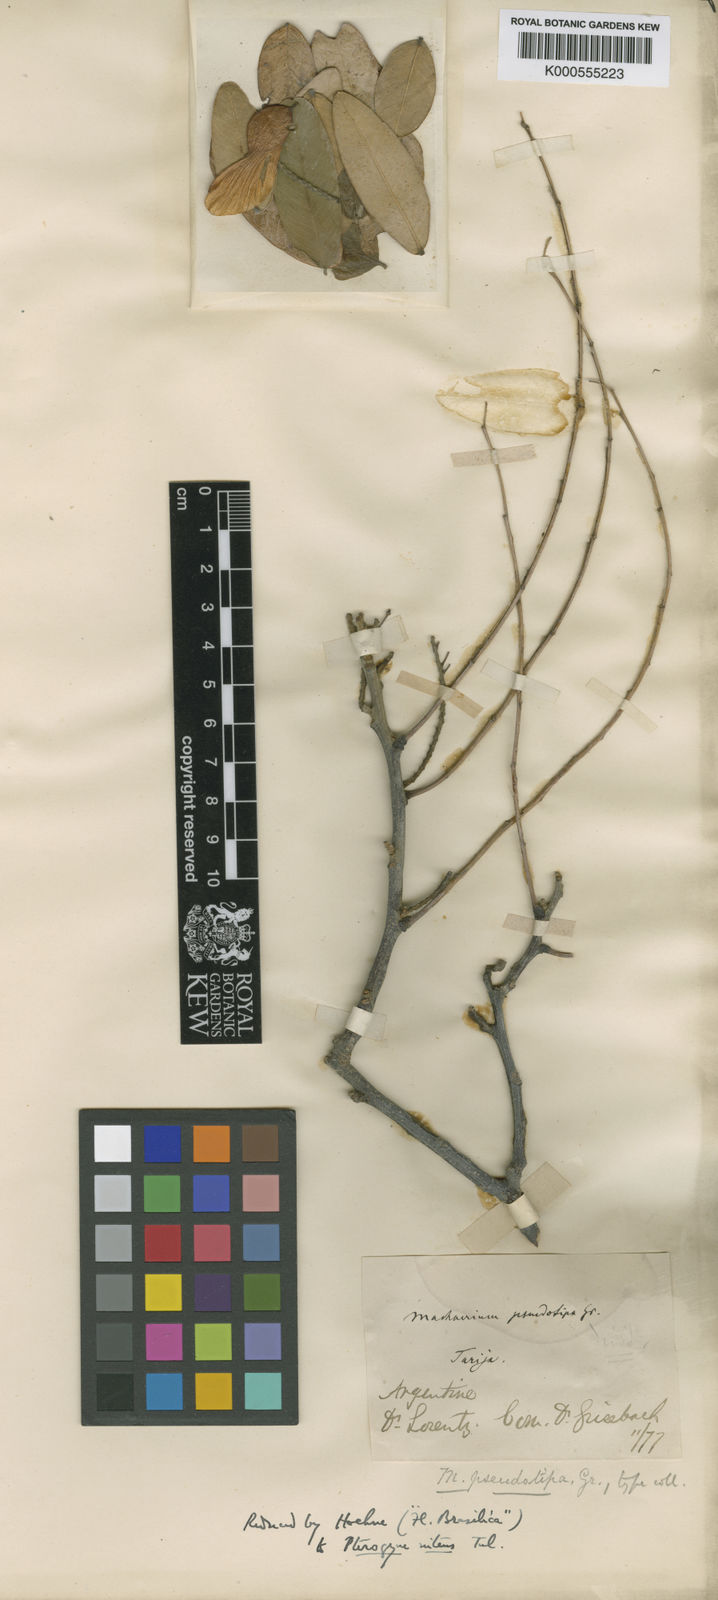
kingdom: Plantae
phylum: Tracheophyta
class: Magnoliopsida
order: Fabales
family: Fabaceae
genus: Pterogyne
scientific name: Pterogyne nitens
